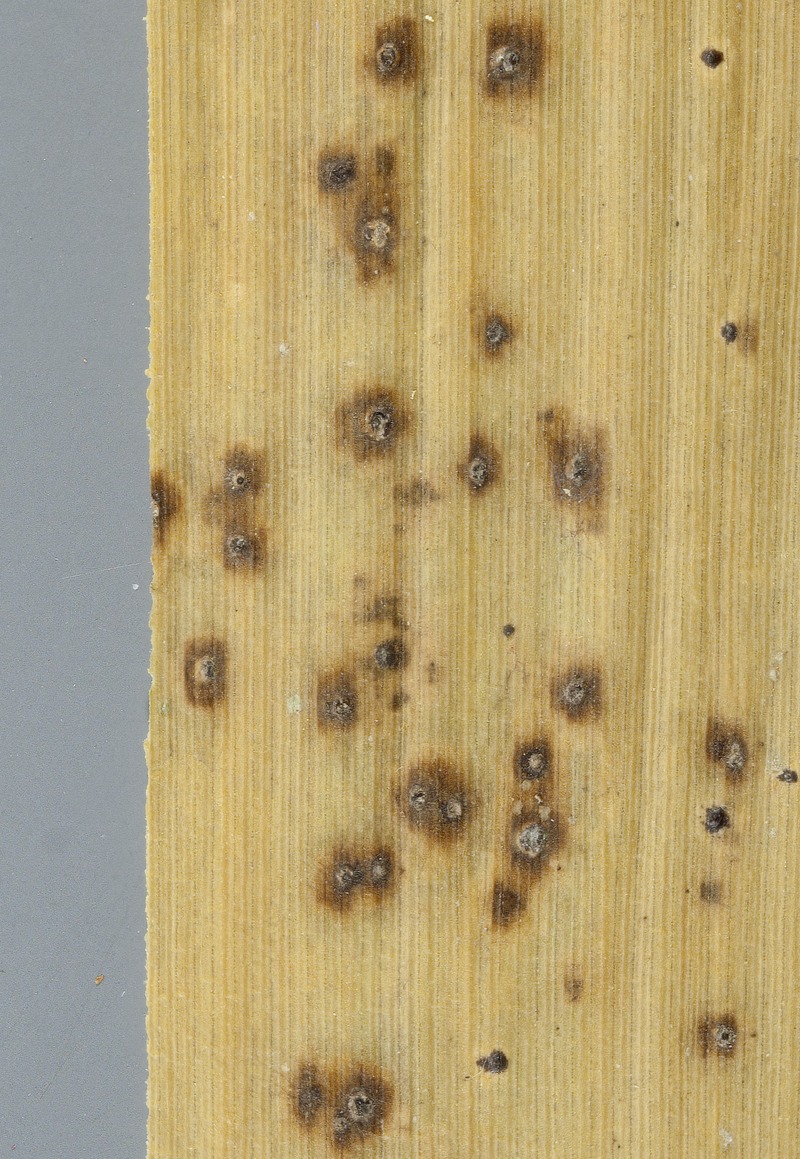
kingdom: Fungi
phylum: Ascomycota
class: Leotiomycetes
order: Helotiales
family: Mollisiaceae
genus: Trichobelonium
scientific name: Trichobelonium melioloides
